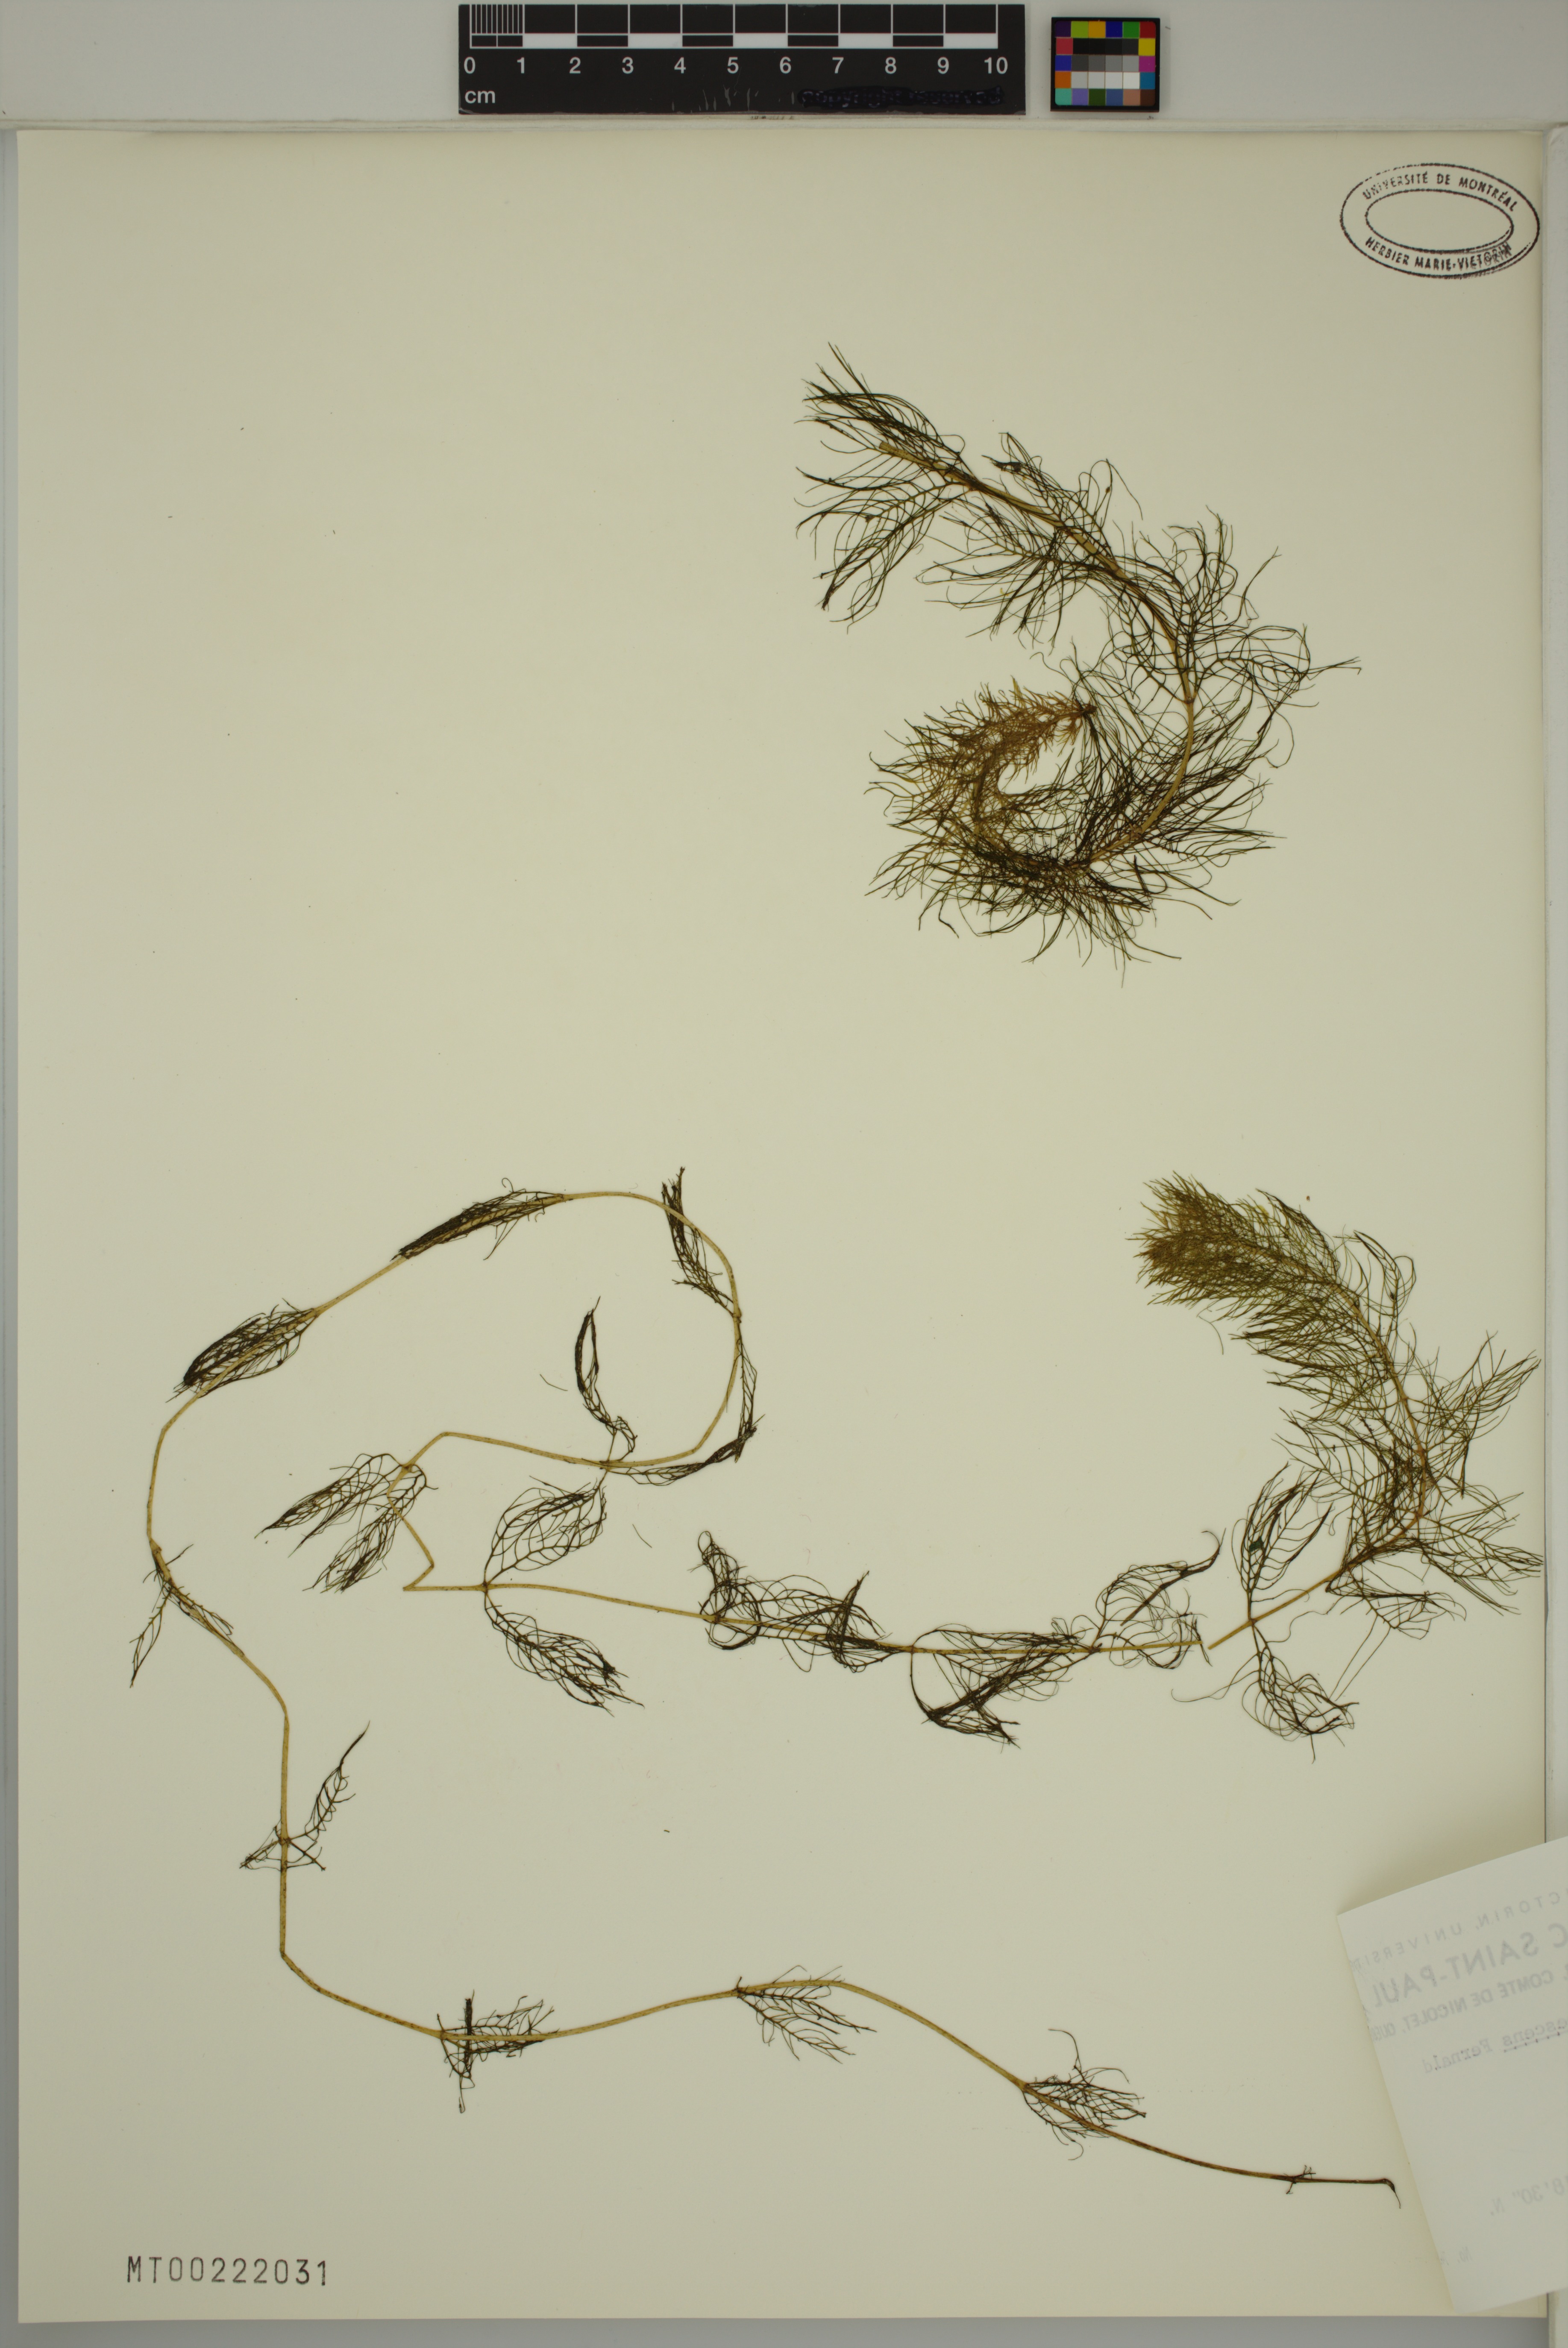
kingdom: Plantae
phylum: Tracheophyta
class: Magnoliopsida
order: Saxifragales
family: Haloragaceae
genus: Myriophyllum
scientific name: Myriophyllum sibiricum
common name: Siberian water-milfoil
